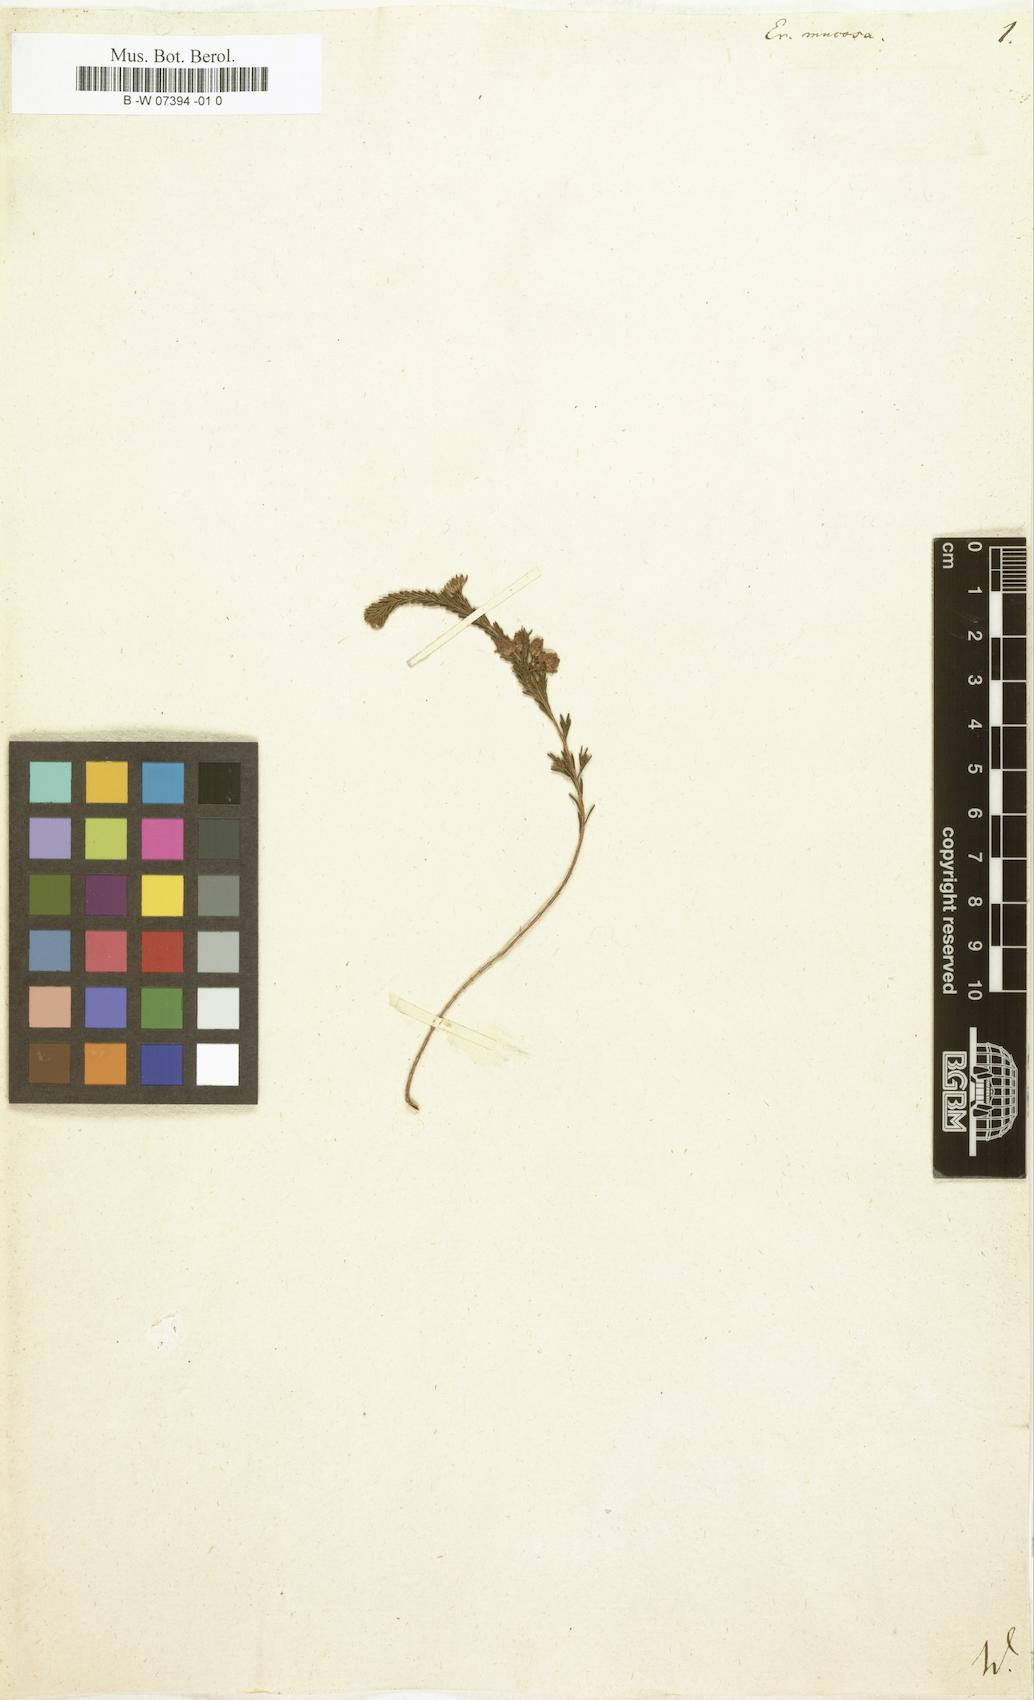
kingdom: Plantae
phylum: Tracheophyta
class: Magnoliopsida
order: Ericales
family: Ericaceae
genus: Erica
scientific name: Erica ferrea
